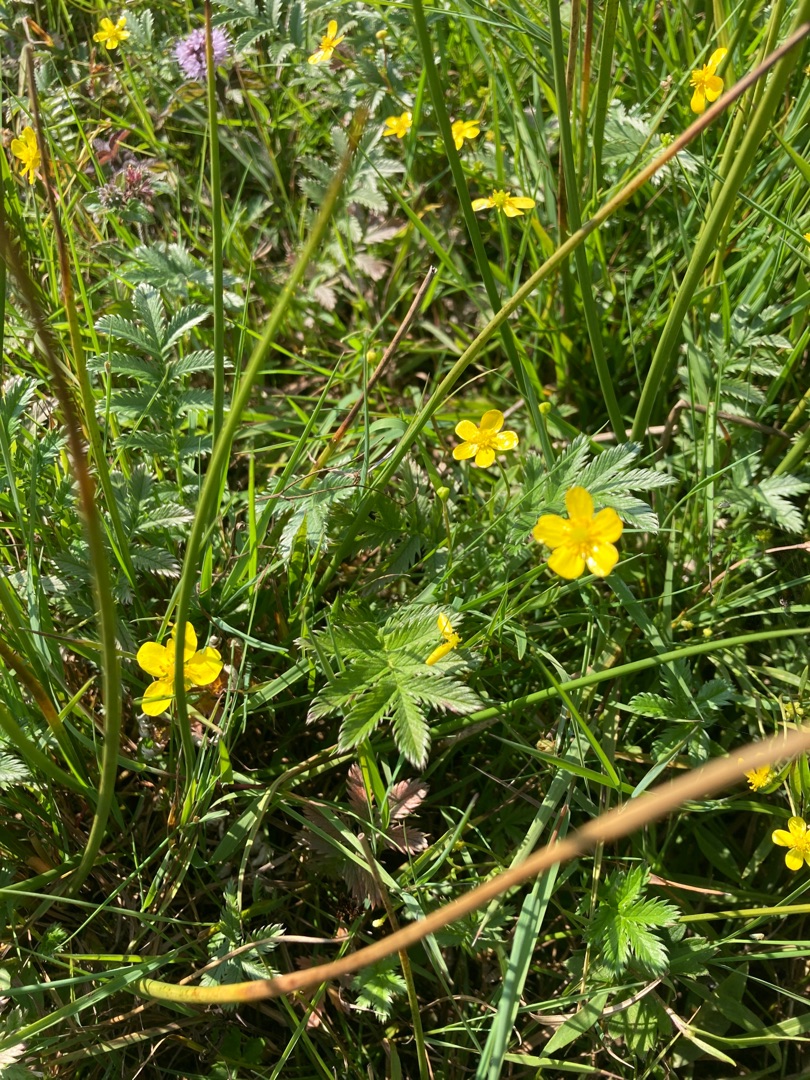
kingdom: Plantae
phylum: Tracheophyta
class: Magnoliopsida
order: Rosales
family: Rosaceae
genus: Argentina
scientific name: Argentina anserina
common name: Gåsepotentil
